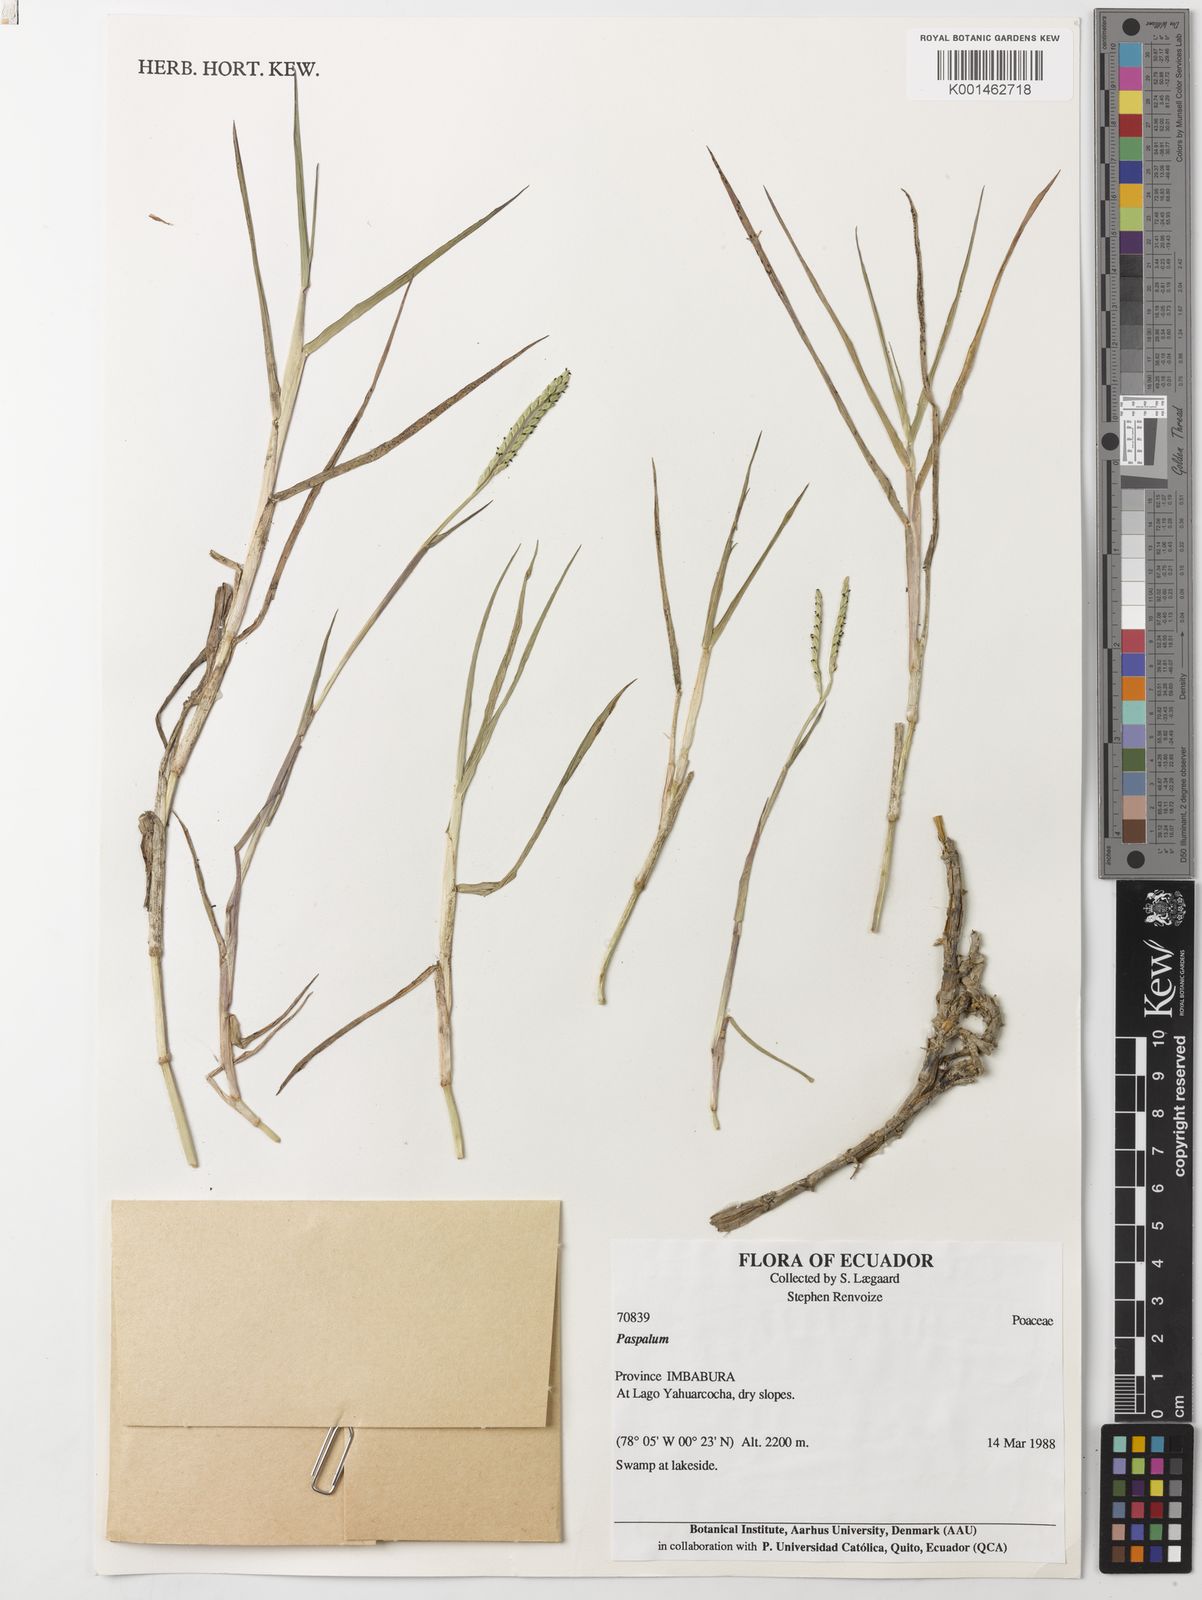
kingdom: Plantae
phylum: Tracheophyta
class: Liliopsida
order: Poales
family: Poaceae
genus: Paspalum
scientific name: Paspalum distichum
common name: Knotgrass
